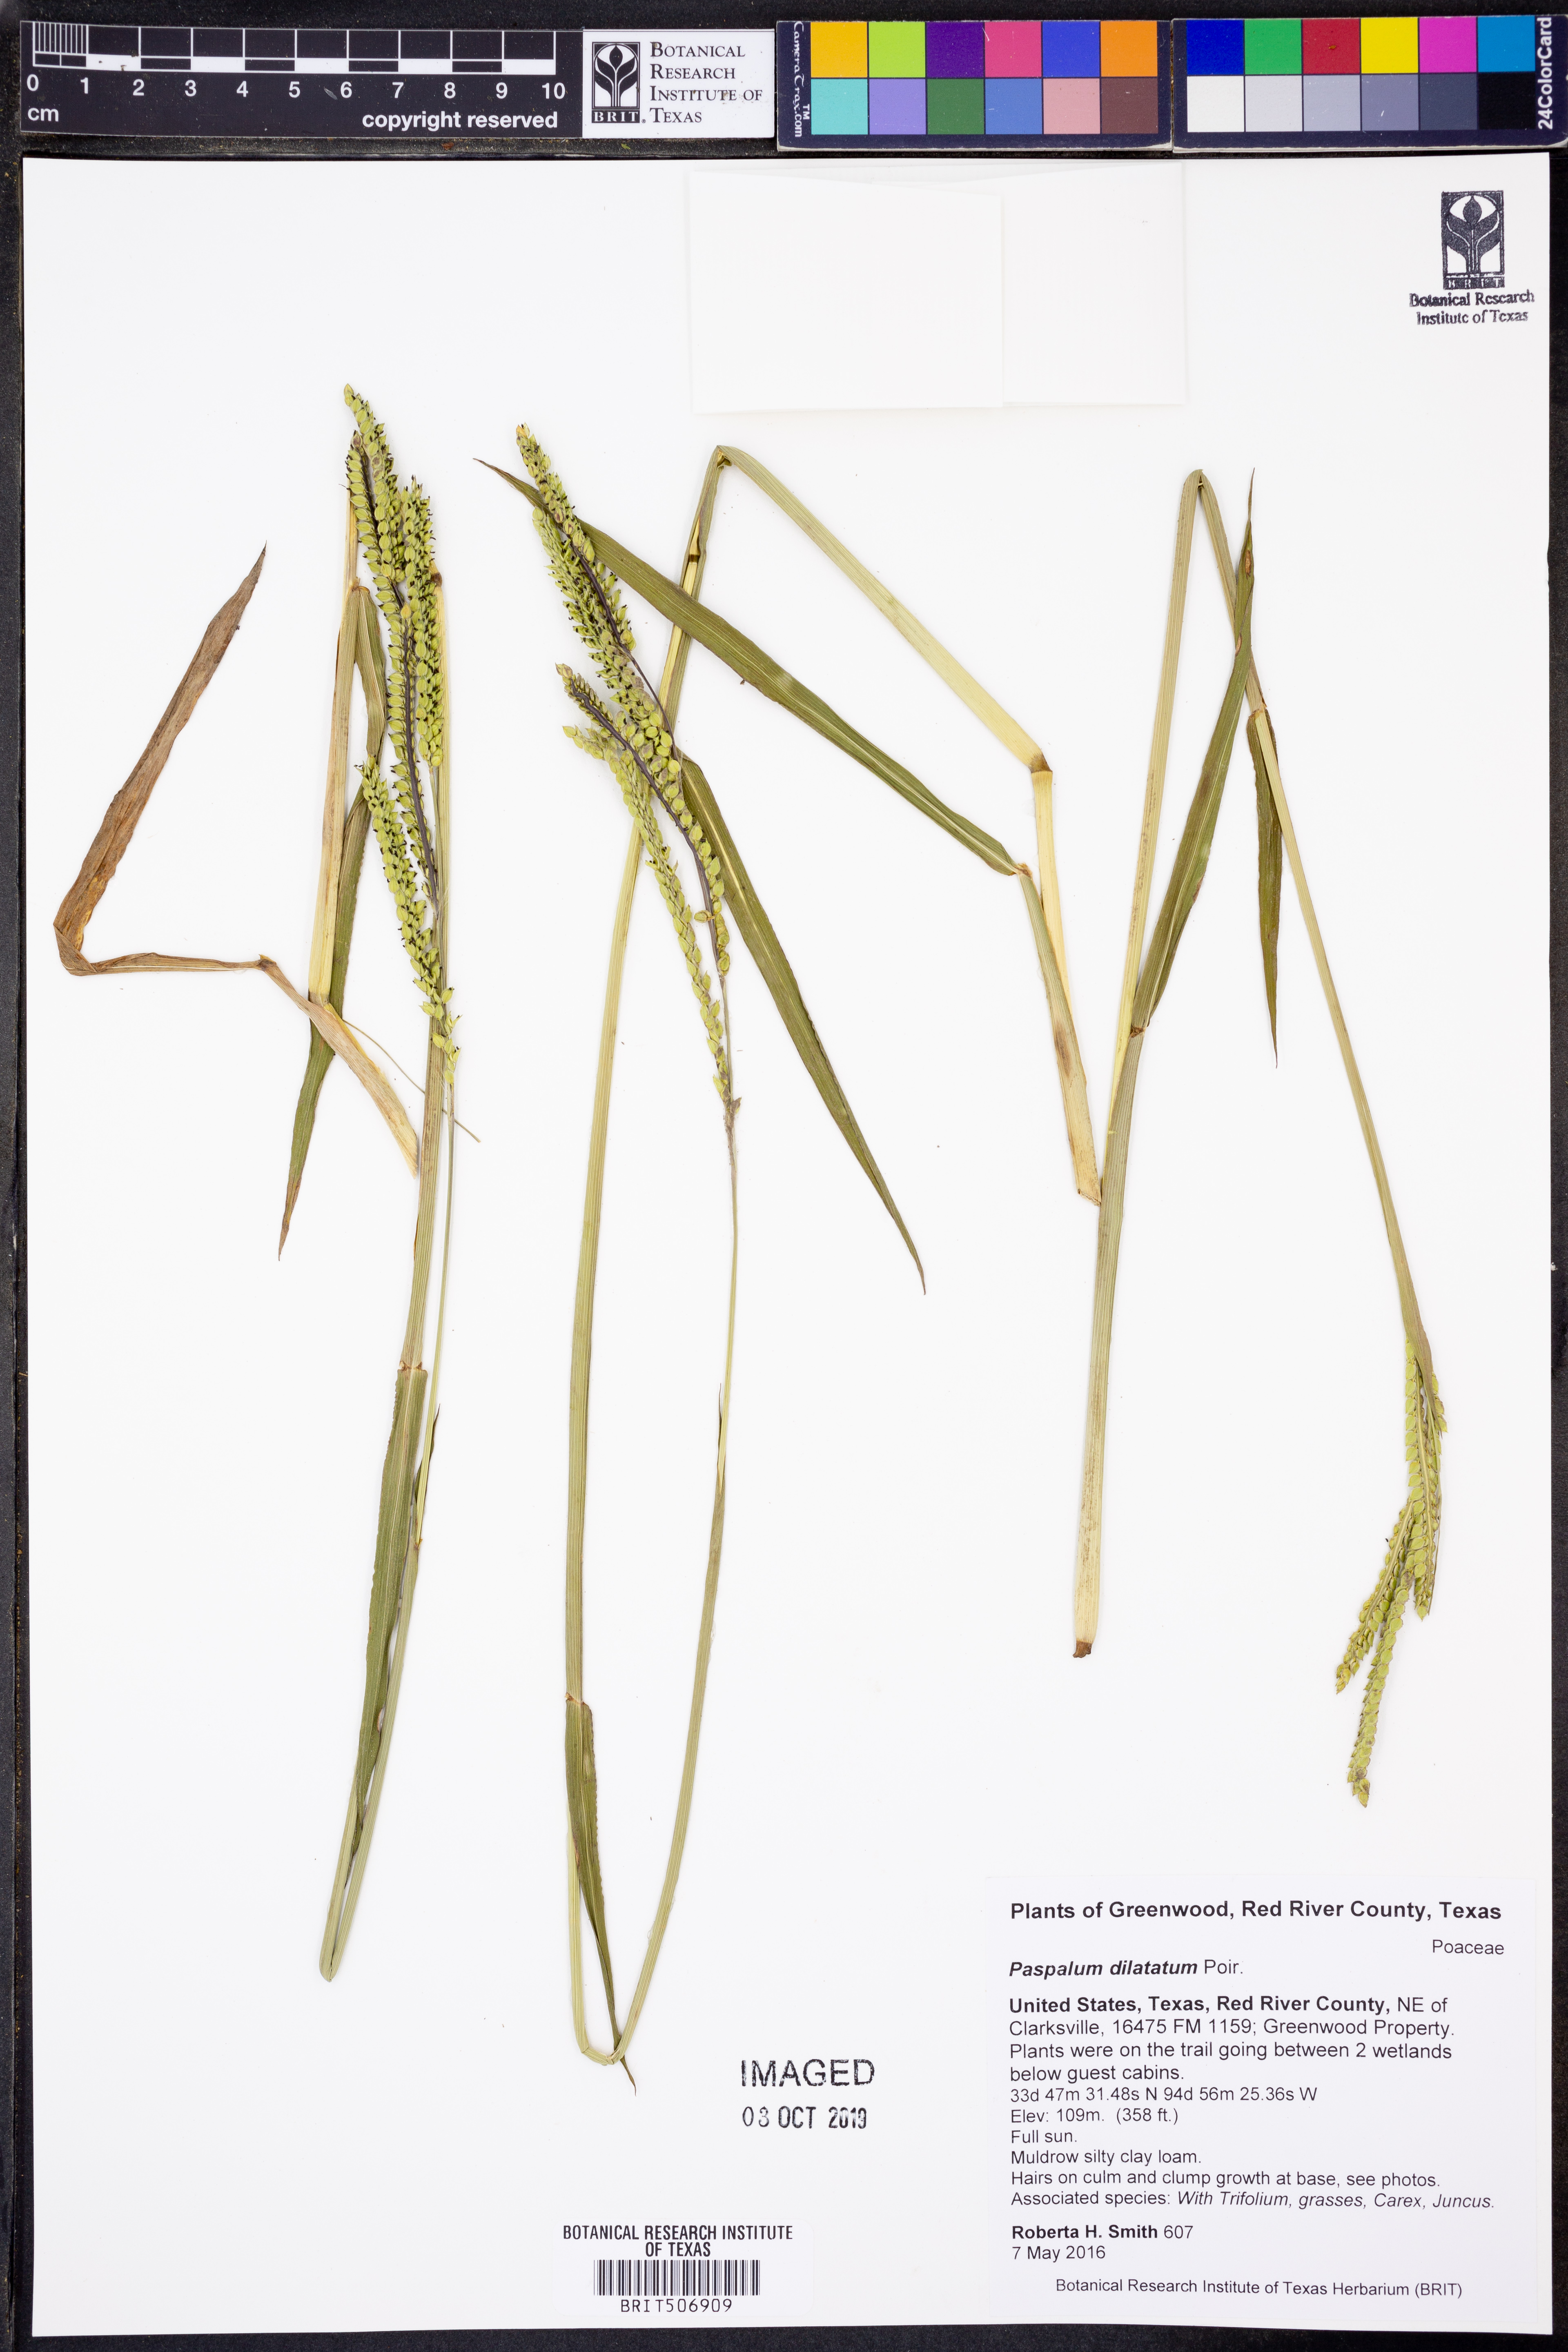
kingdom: Plantae
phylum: Tracheophyta
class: Liliopsida
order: Poales
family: Poaceae
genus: Paspalum
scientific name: Paspalum dilatatum
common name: Dallisgrass
